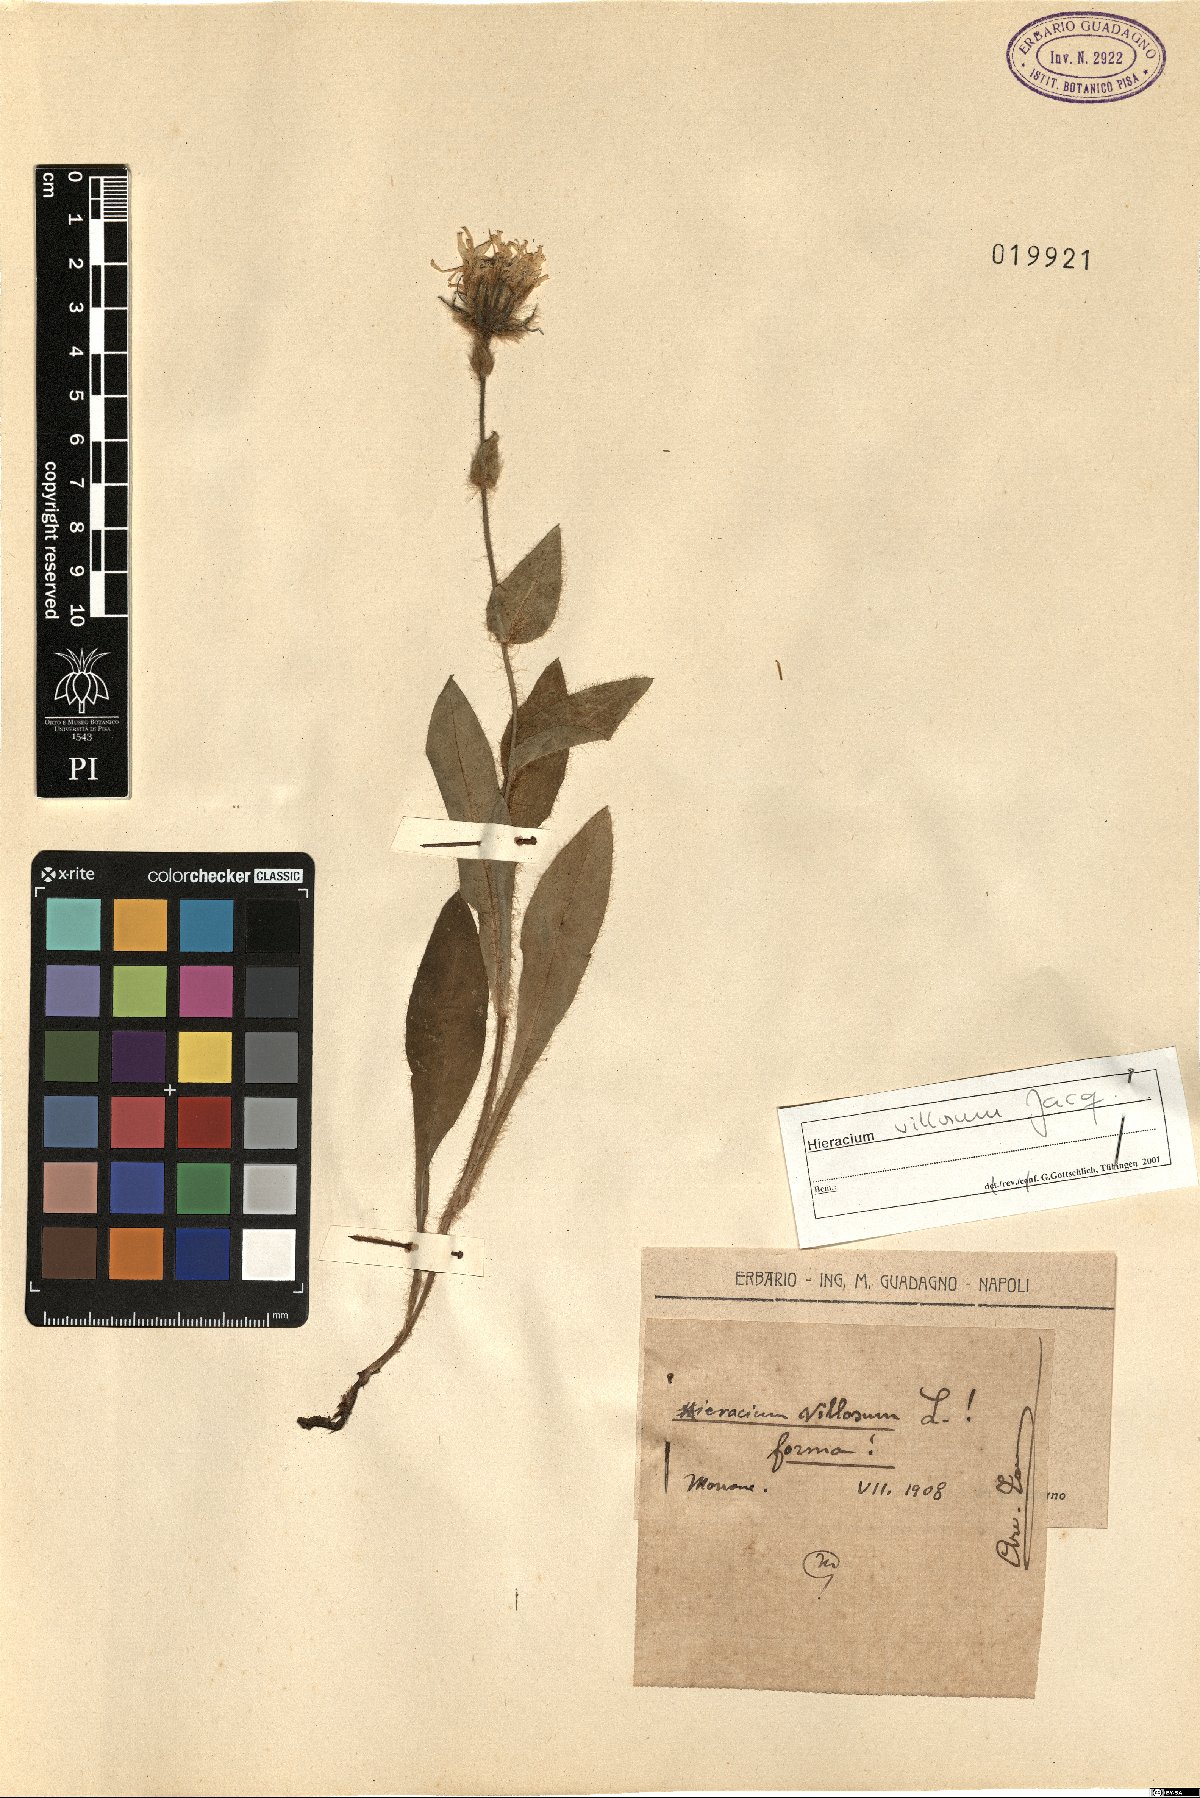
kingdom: Plantae
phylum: Tracheophyta
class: Magnoliopsida
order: Asterales
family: Asteraceae
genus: Hieracium
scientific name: Hieracium villosum
